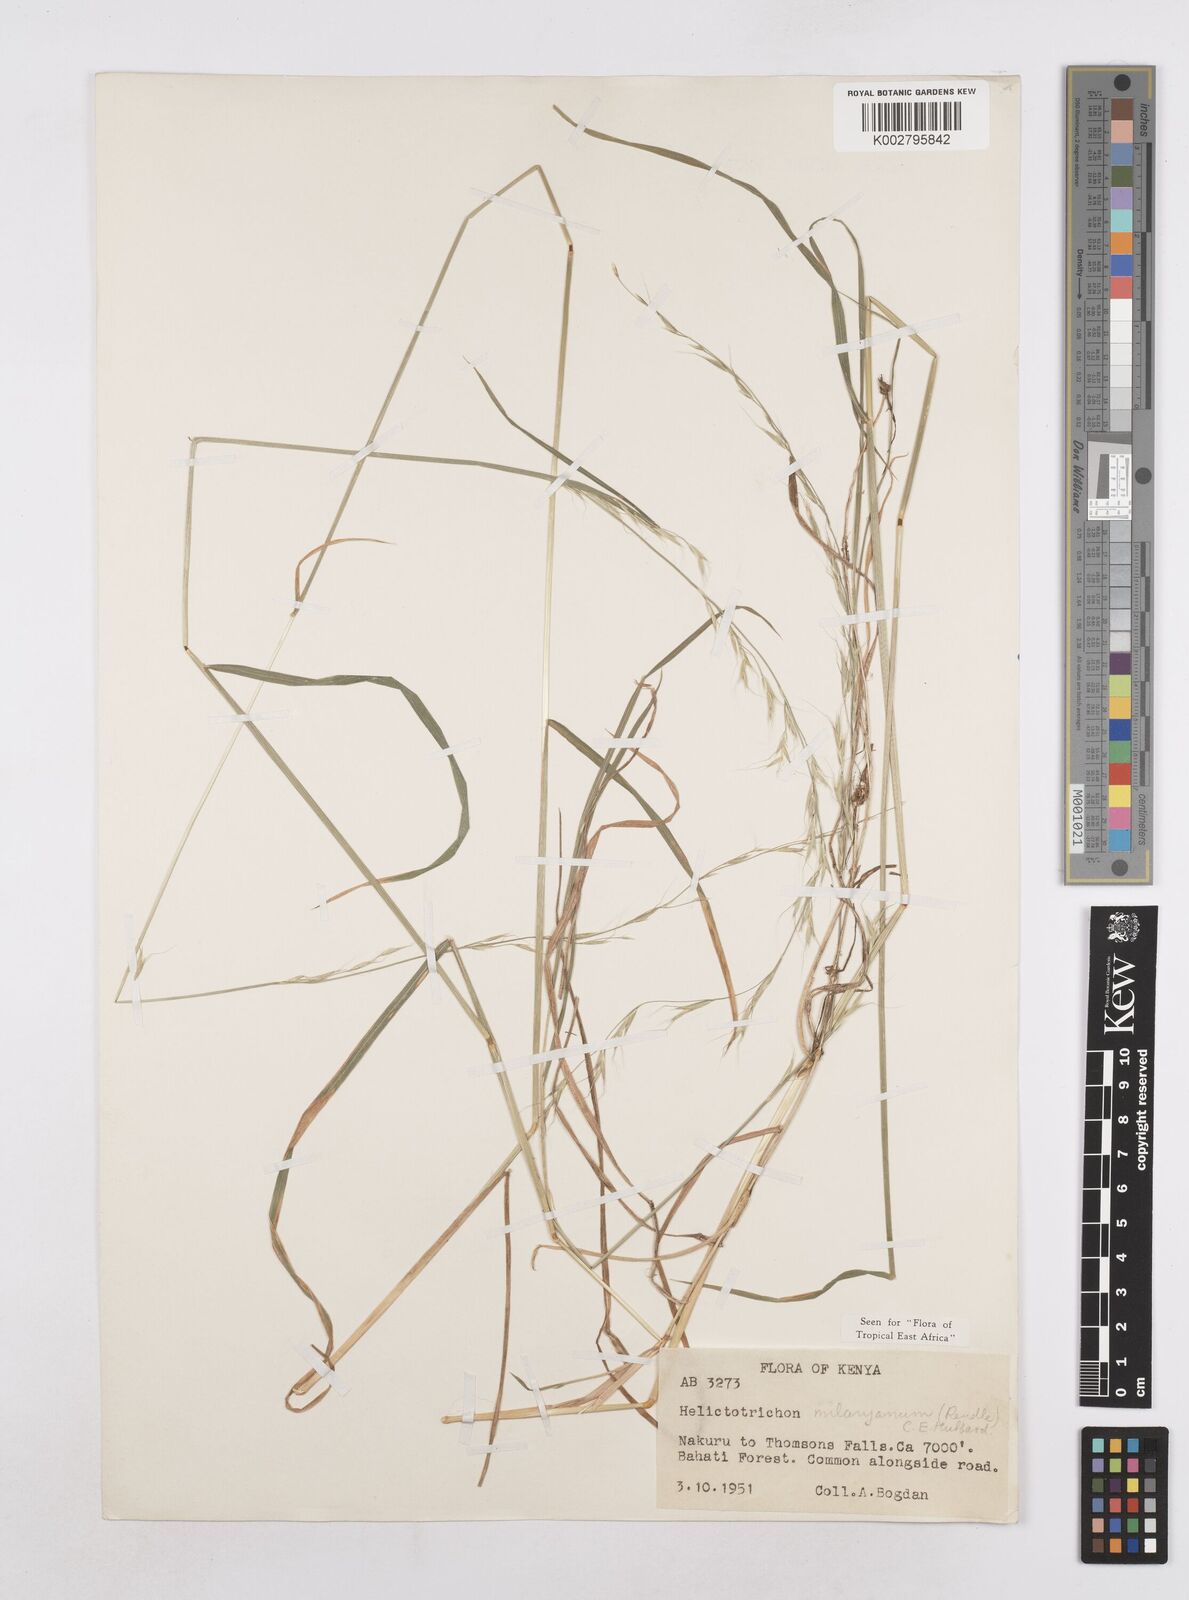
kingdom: Plantae
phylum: Tracheophyta
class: Liliopsida
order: Poales
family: Poaceae
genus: Trisetopsis
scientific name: Trisetopsis milanjiana
